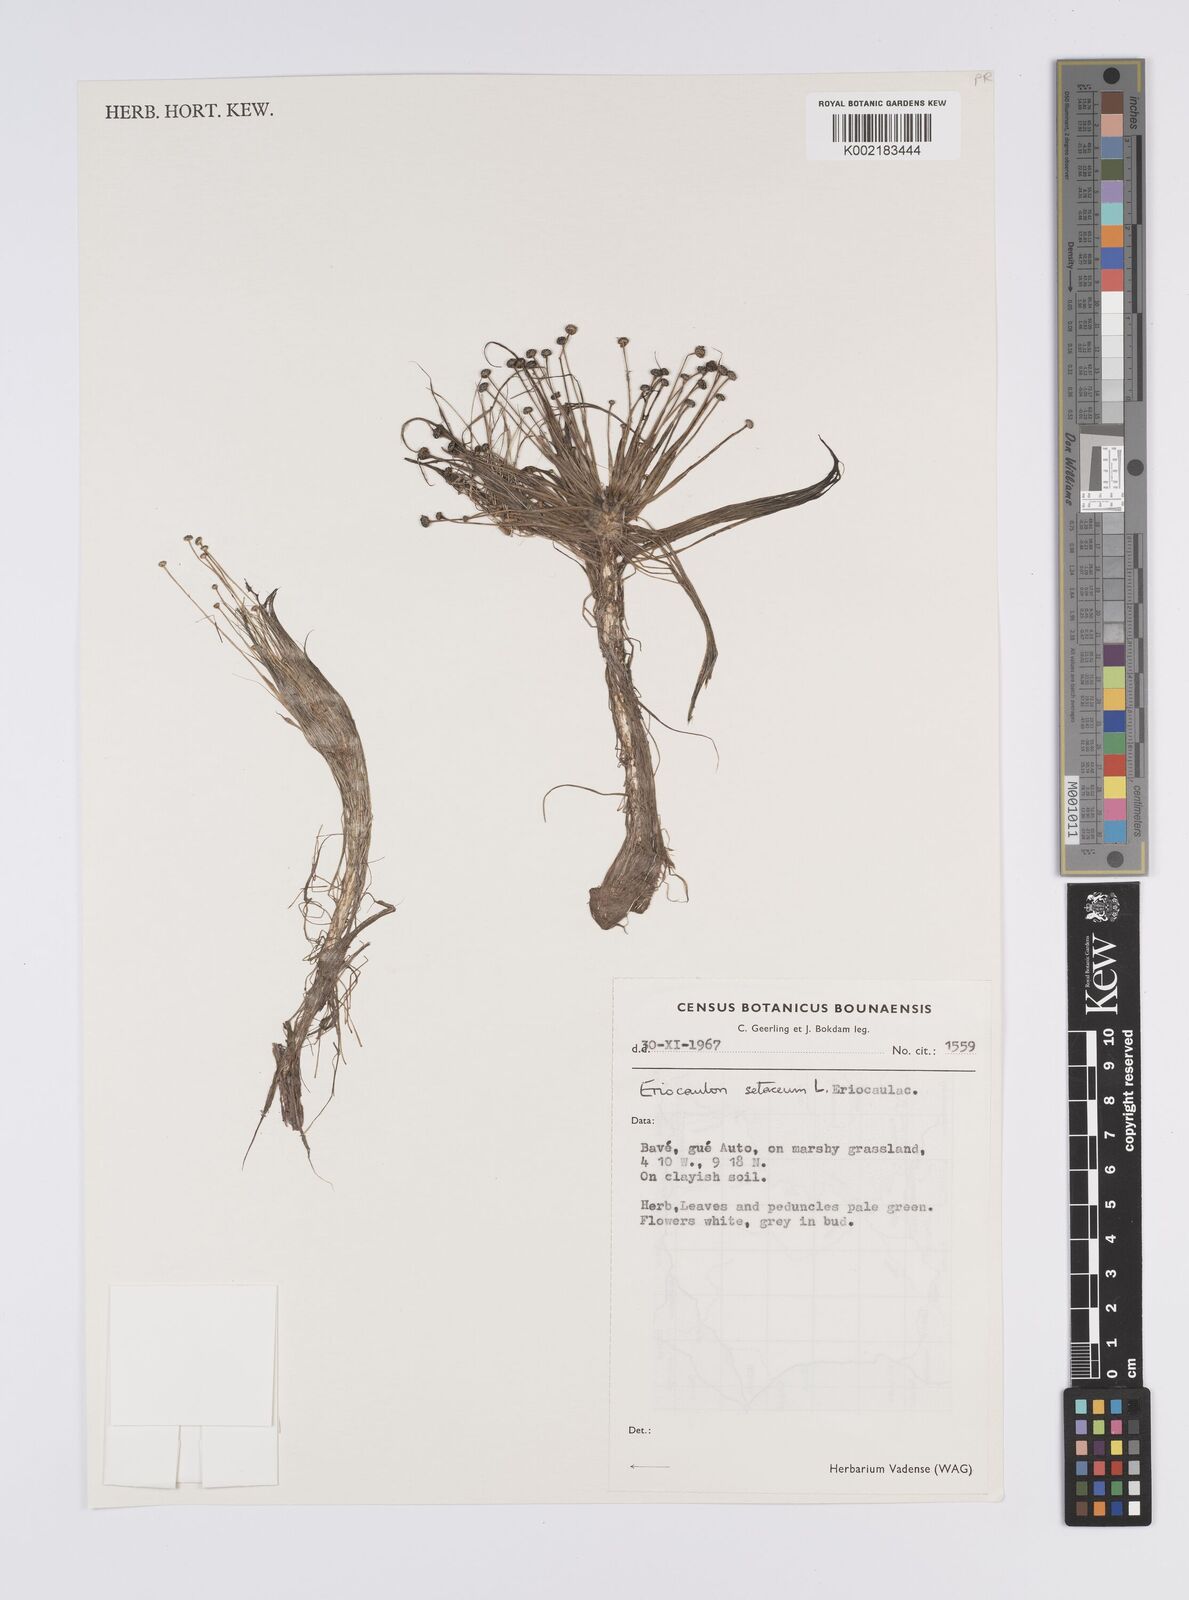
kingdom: Plantae
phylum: Tracheophyta
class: Liliopsida
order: Poales
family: Eriocaulaceae
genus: Eriocaulon
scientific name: Eriocaulon setaceum
